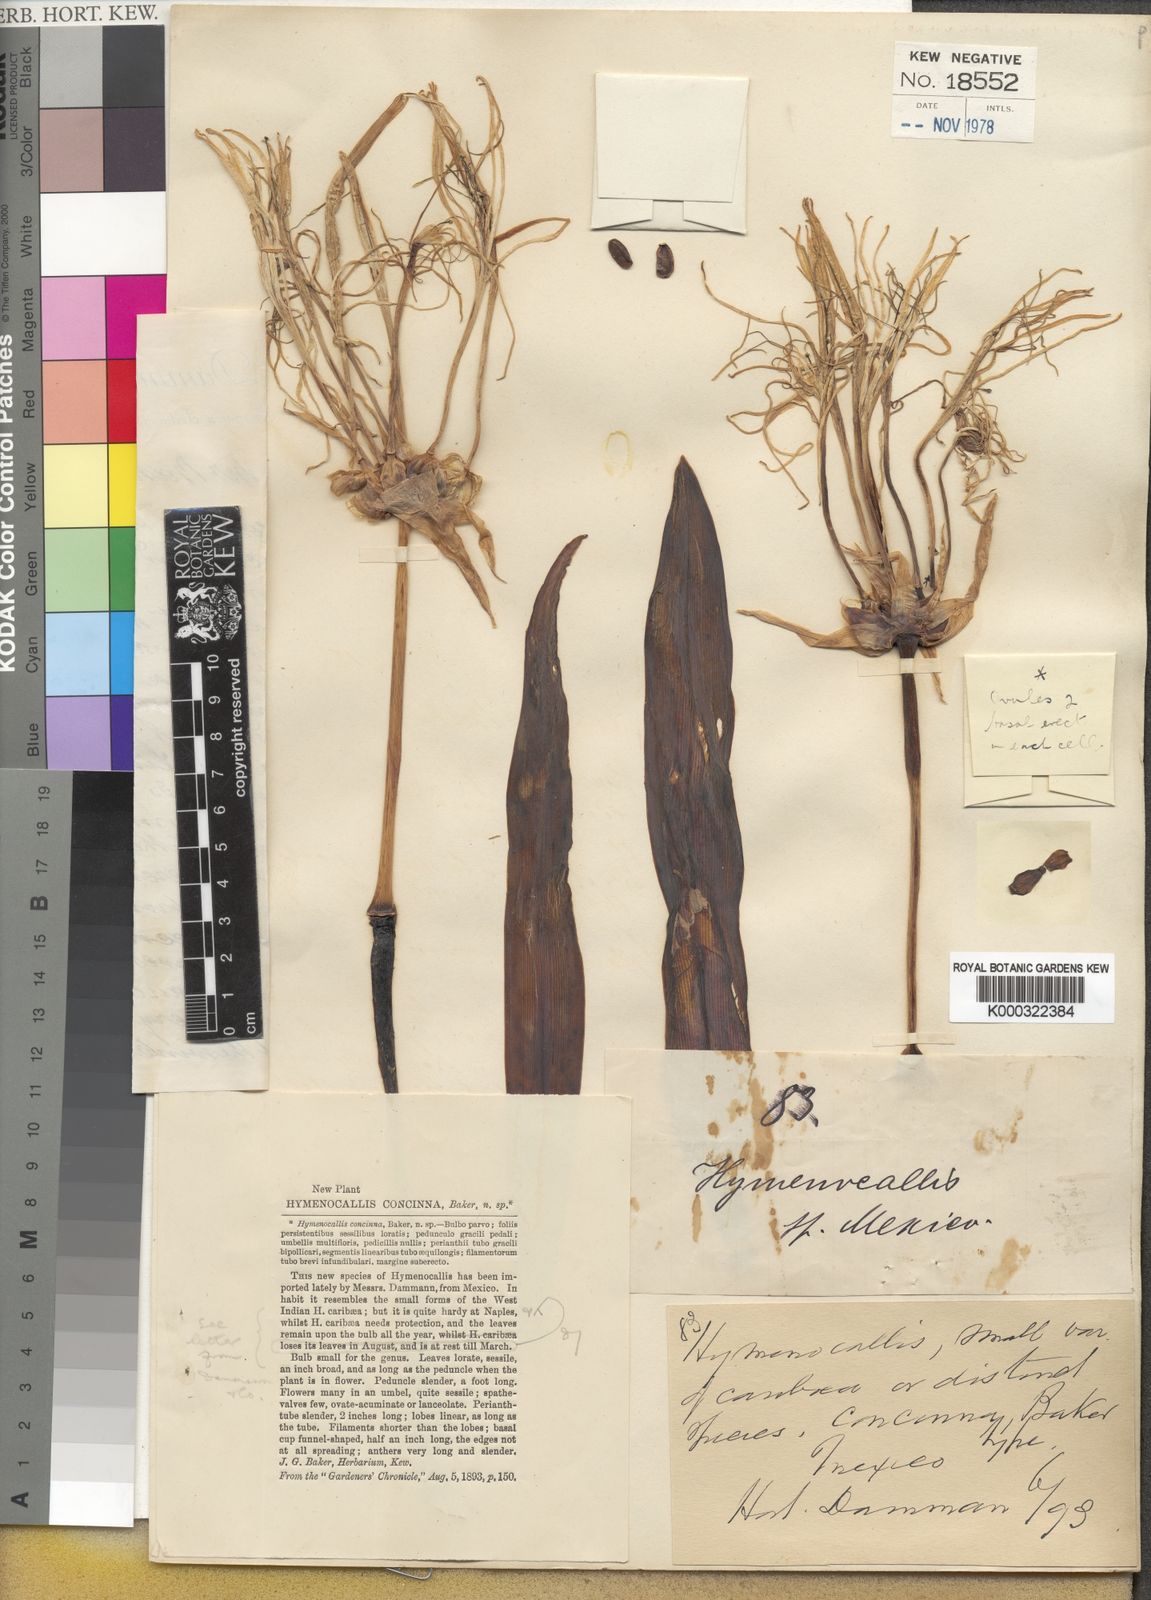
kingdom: Plantae
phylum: Tracheophyta
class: Liliopsida
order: Asparagales
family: Amaryllidaceae
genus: Hymenocallis
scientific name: Hymenocallis harrisiana
